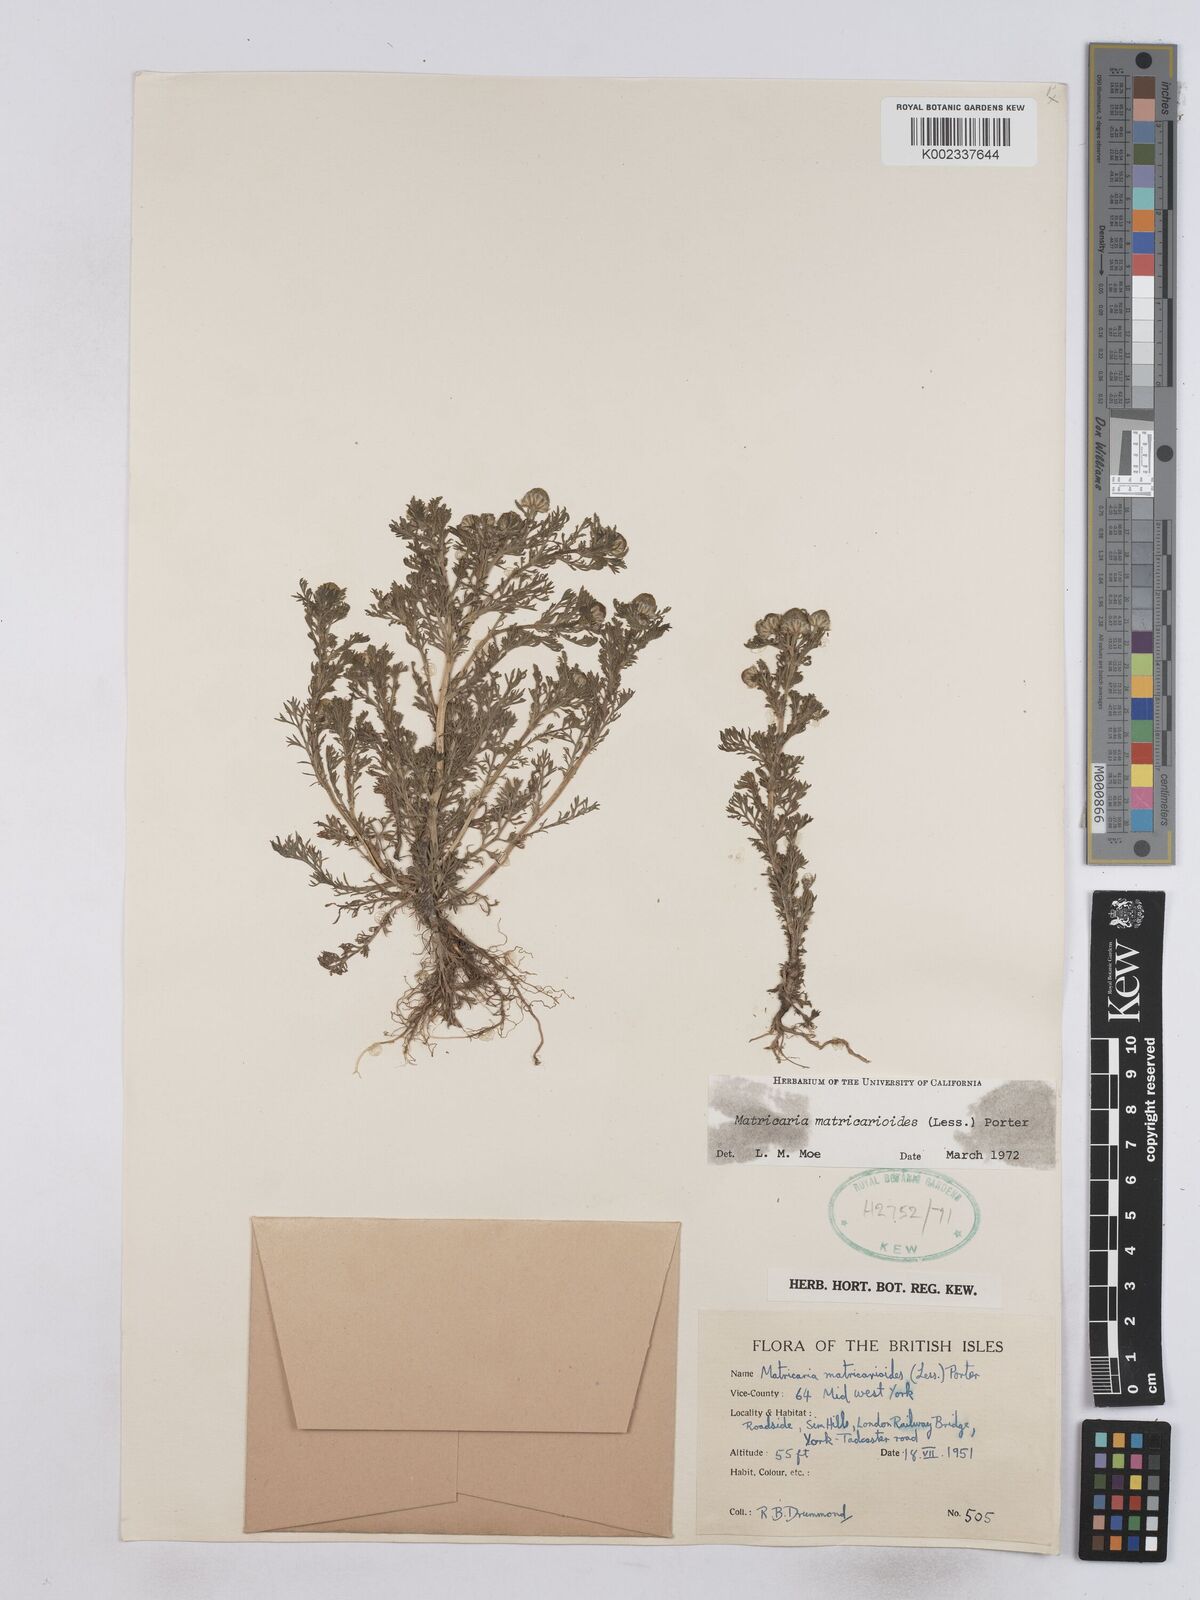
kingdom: Plantae
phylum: Tracheophyta
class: Magnoliopsida
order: Asterales
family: Asteraceae
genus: Matricaria
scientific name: Matricaria discoidea
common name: Disc mayweed
